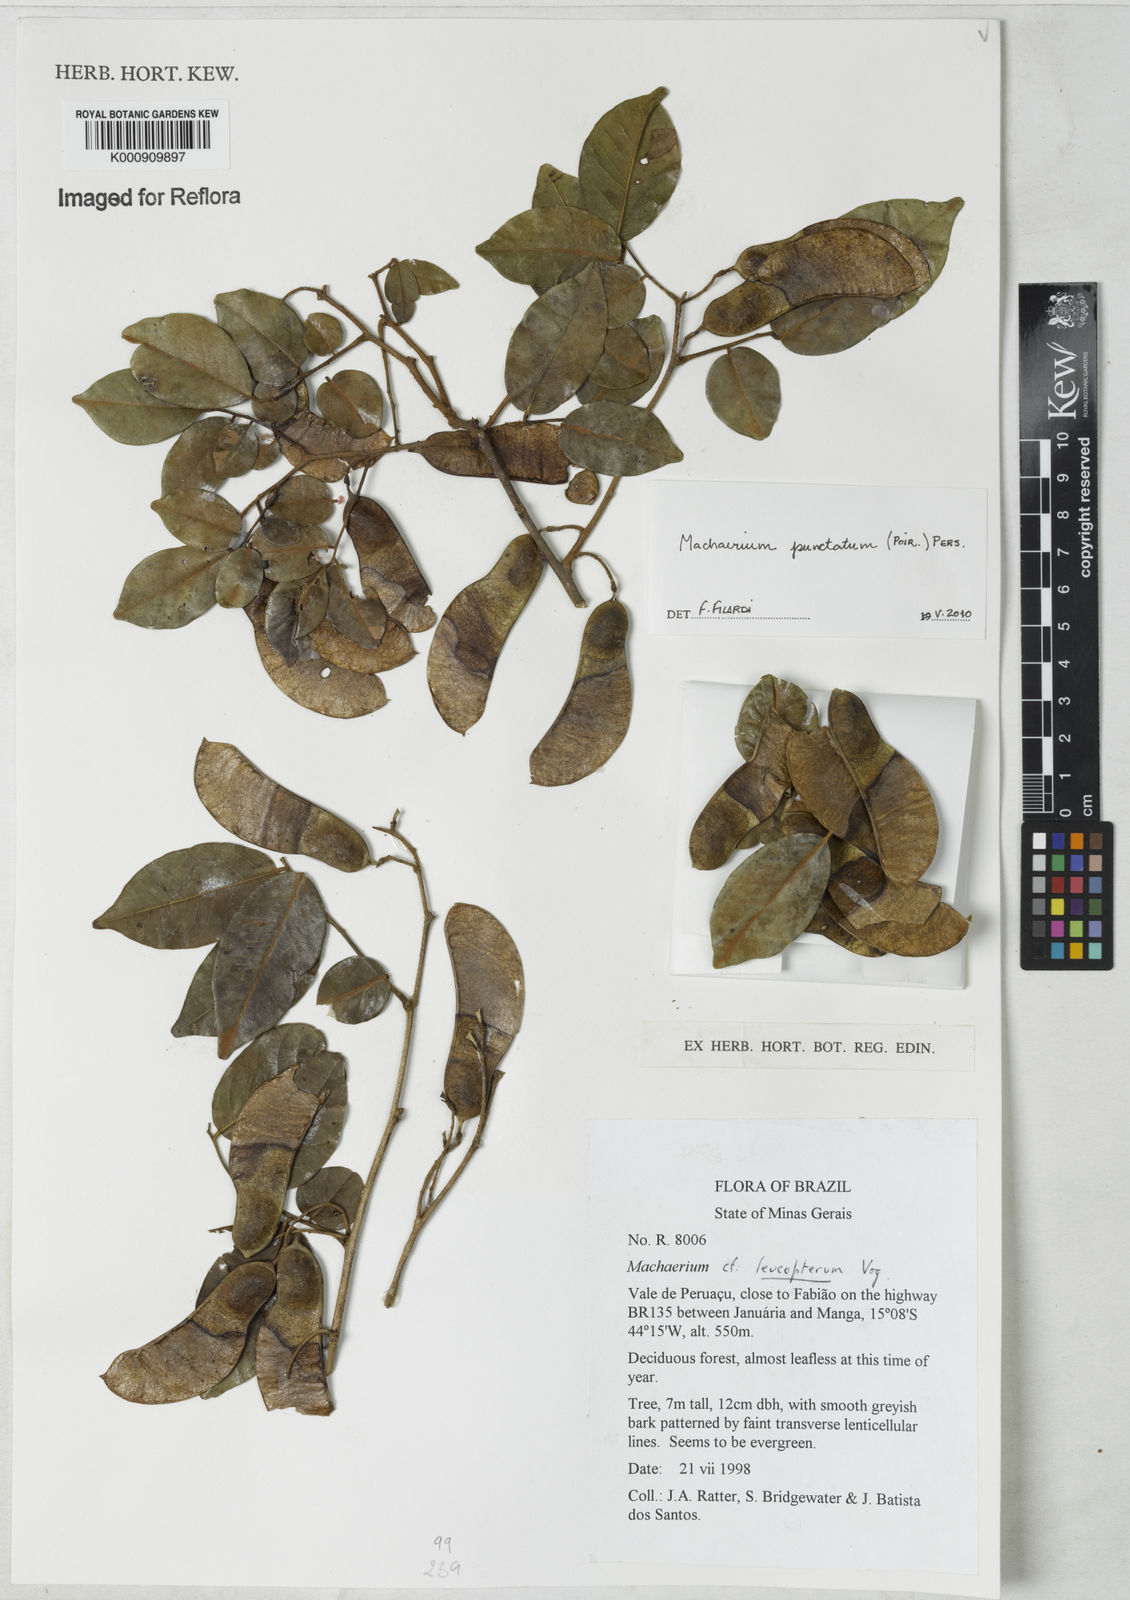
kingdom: Plantae
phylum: Tracheophyta
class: Magnoliopsida
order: Fabales
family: Fabaceae
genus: Machaerium
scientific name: Machaerium punctatum
